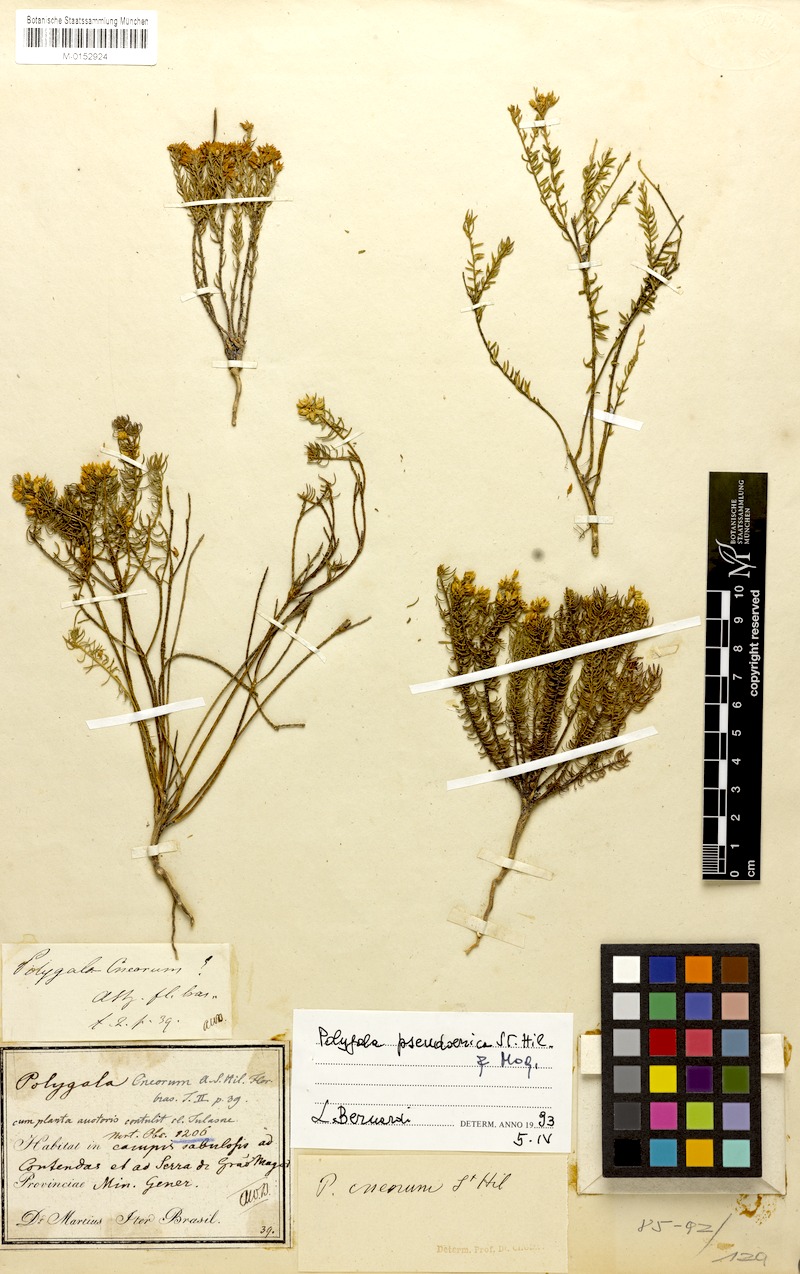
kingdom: Plantae
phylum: Tracheophyta
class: Magnoliopsida
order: Fabales
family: Polygalaceae
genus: Polygala
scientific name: Polygala bryoides
